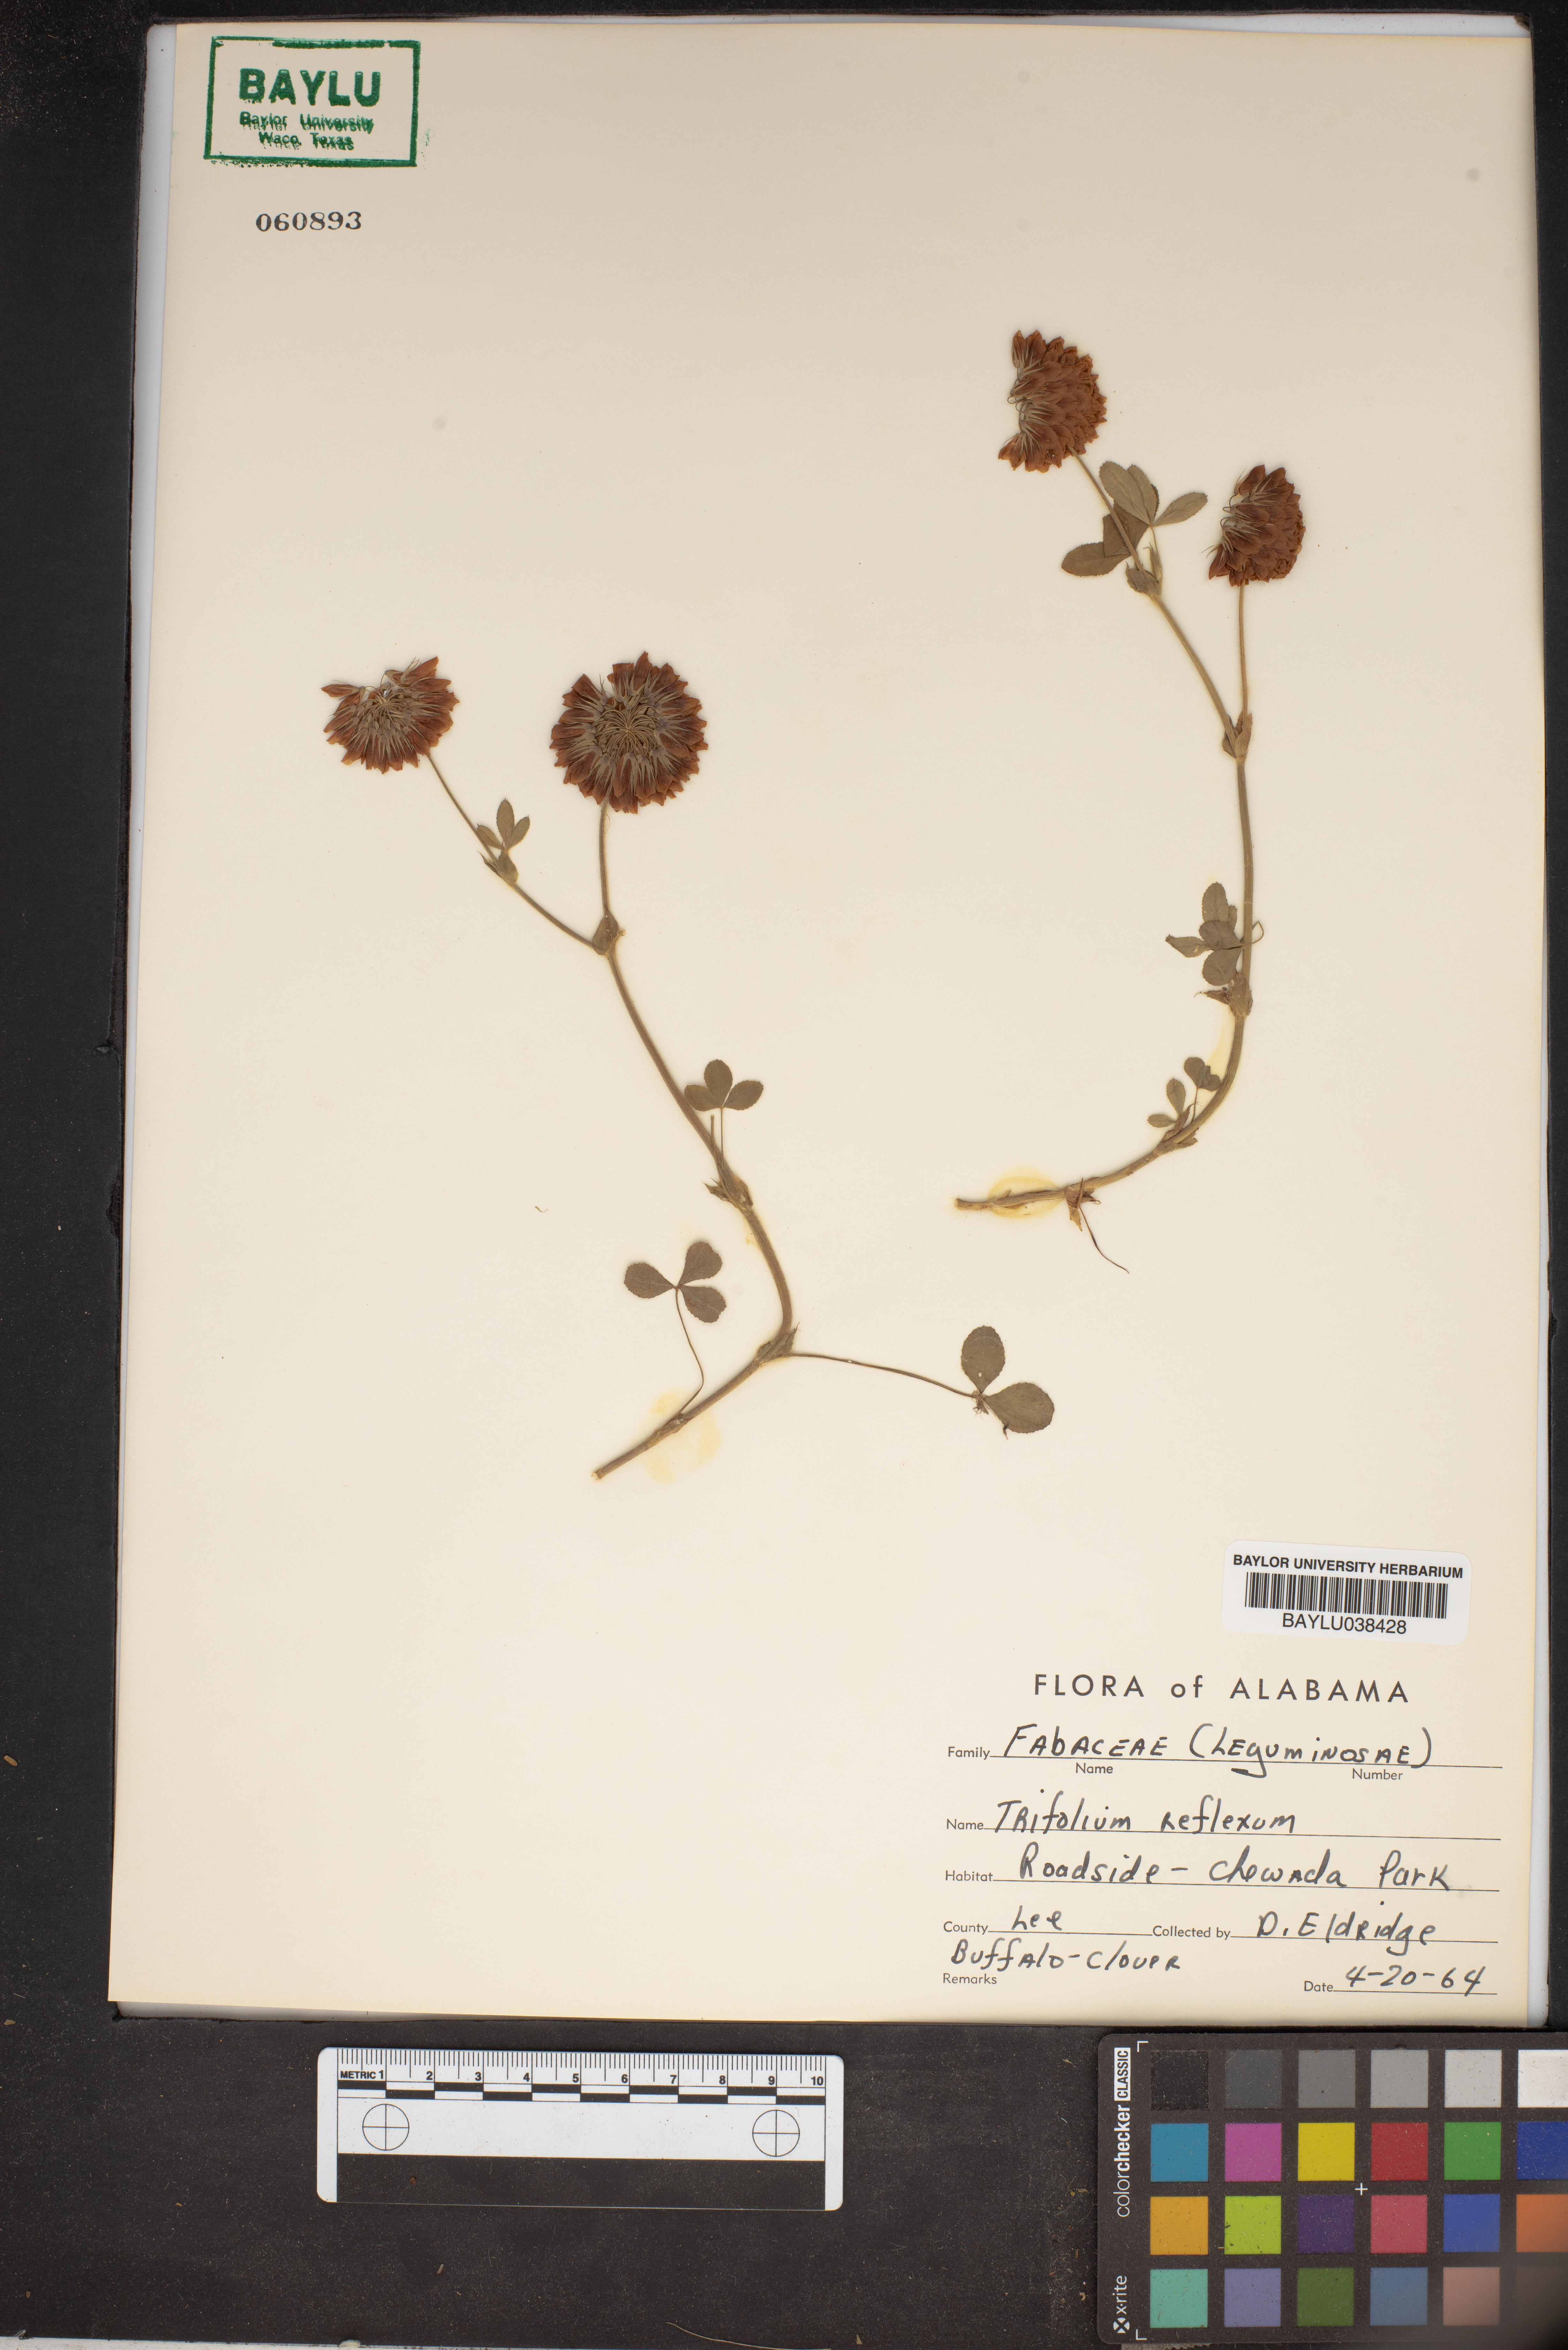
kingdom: Plantae
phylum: Tracheophyta
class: Magnoliopsida
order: Fabales
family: Fabaceae
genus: Trifolium
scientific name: Trifolium reflexum
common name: Buffalo clover
